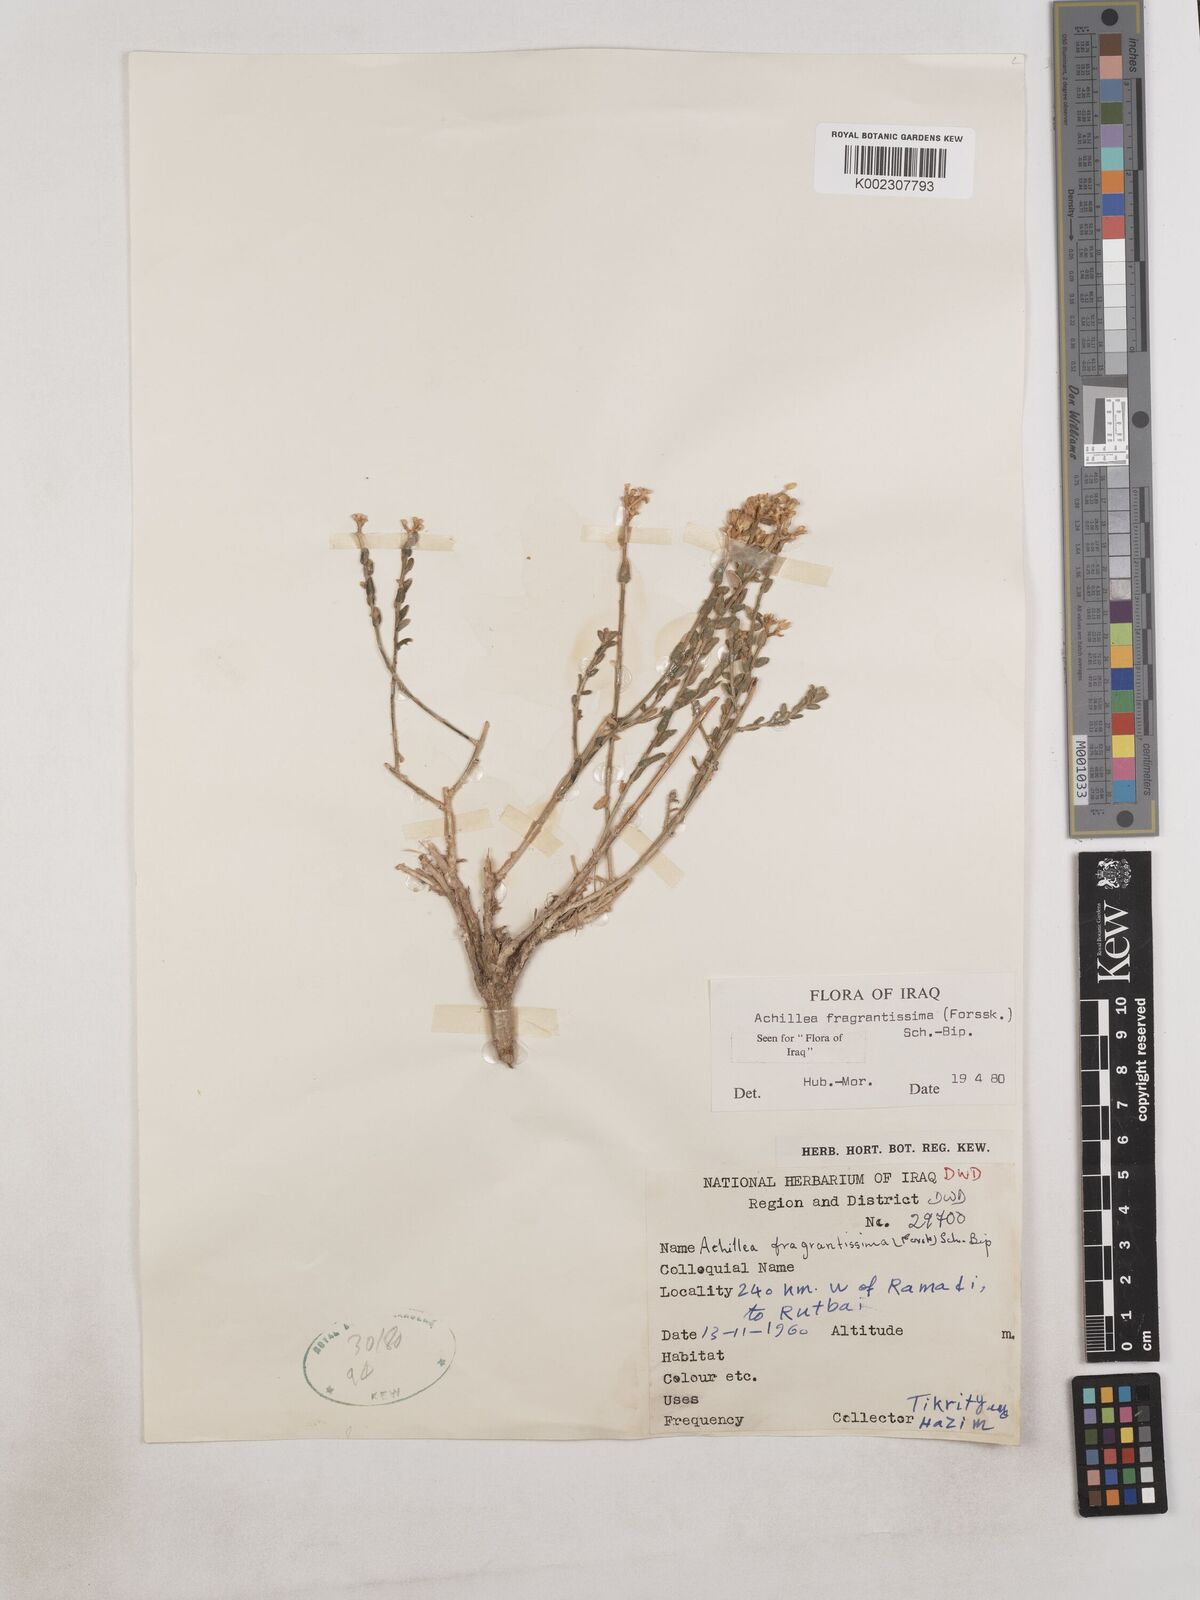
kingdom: Plantae
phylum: Tracheophyta
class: Magnoliopsida
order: Asterales
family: Asteraceae
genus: Achillea
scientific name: Achillea fragrantissima
